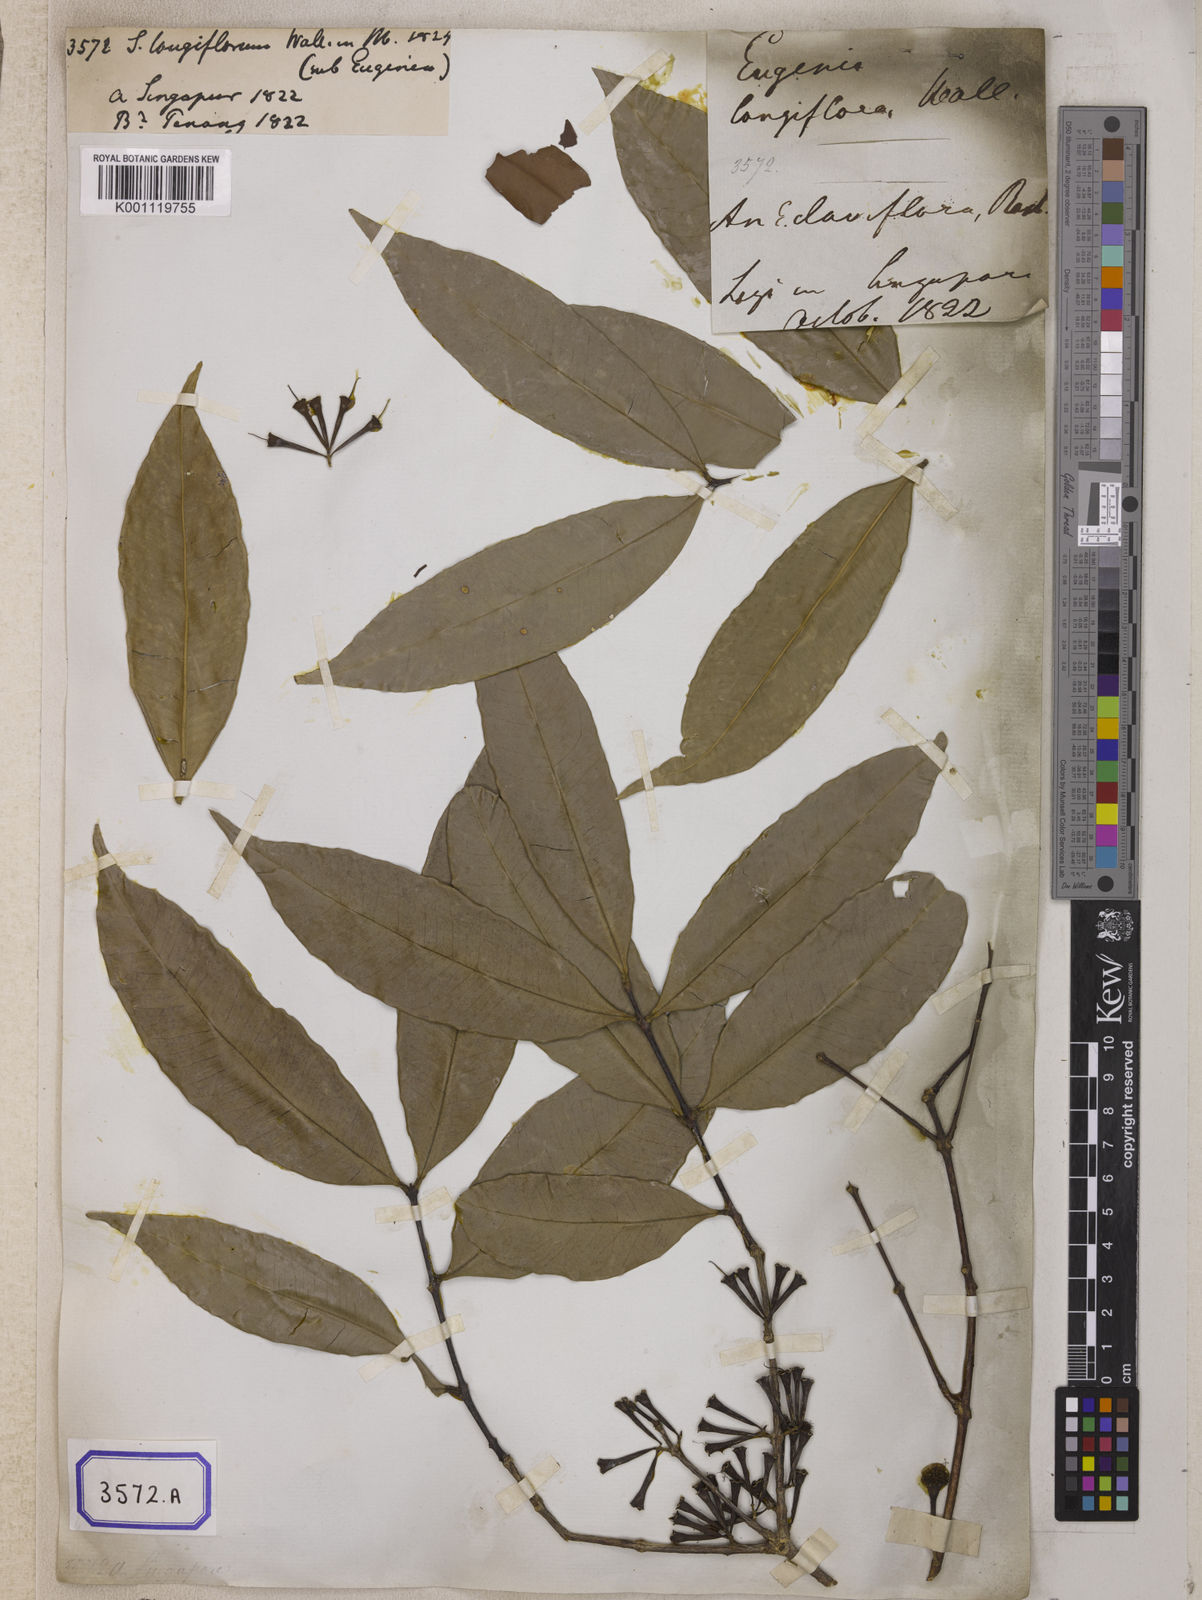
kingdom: Plantae
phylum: Tracheophyta
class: Magnoliopsida
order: Myrtales
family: Myrtaceae
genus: Syzygium
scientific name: Syzygium
